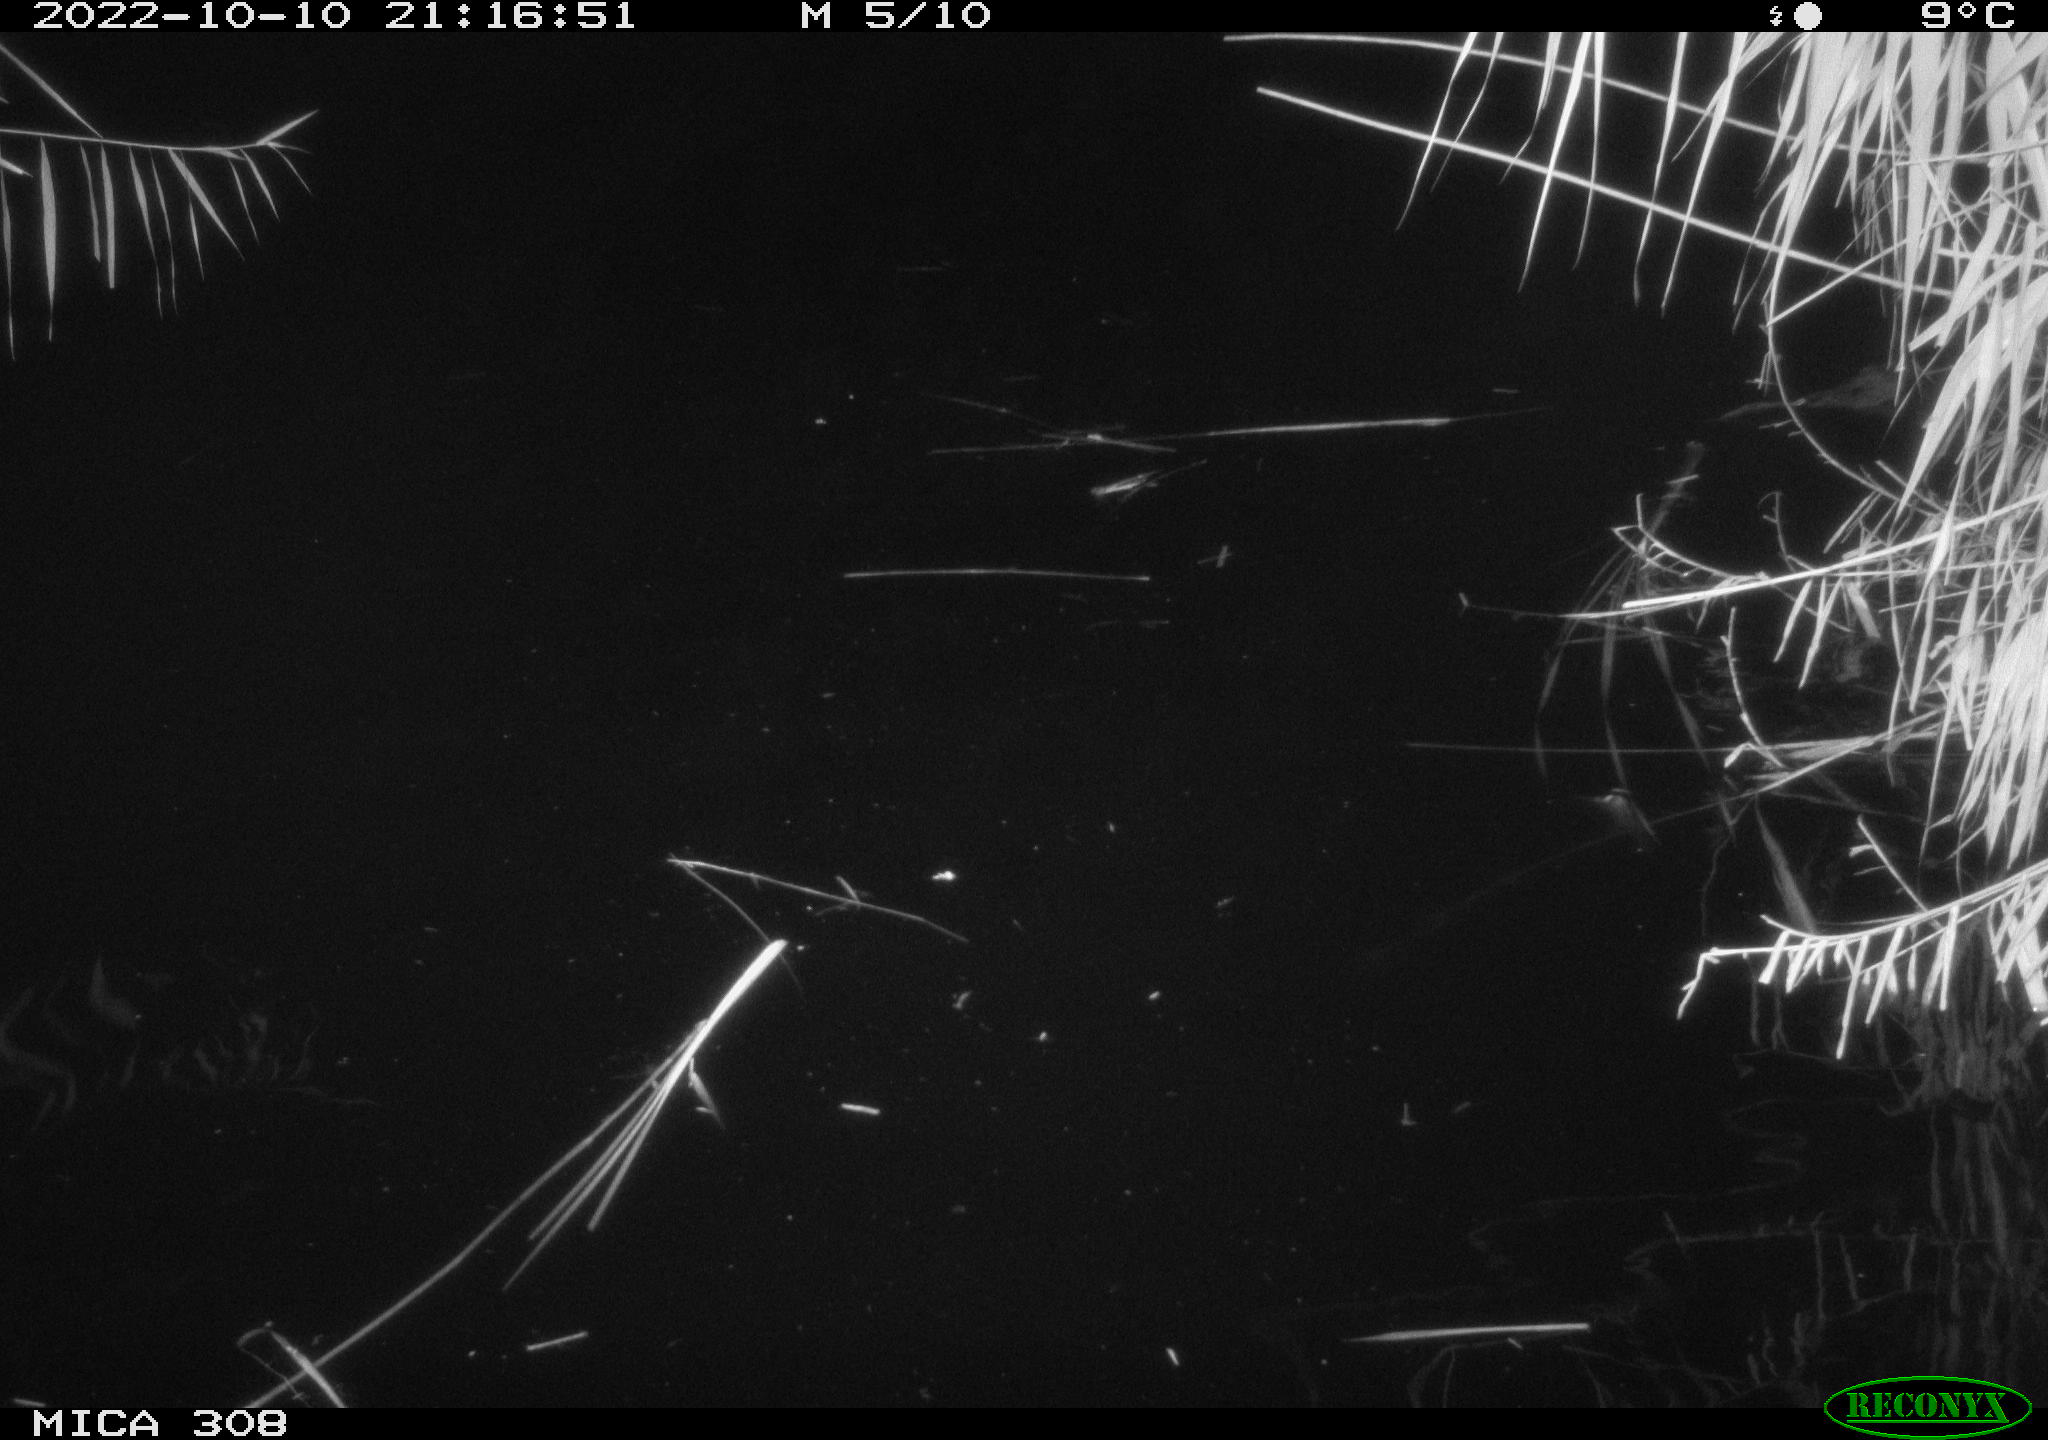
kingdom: Animalia
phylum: Chordata
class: Mammalia
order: Rodentia
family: Cricetidae
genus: Ondatra
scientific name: Ondatra zibethicus
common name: Muskrat
